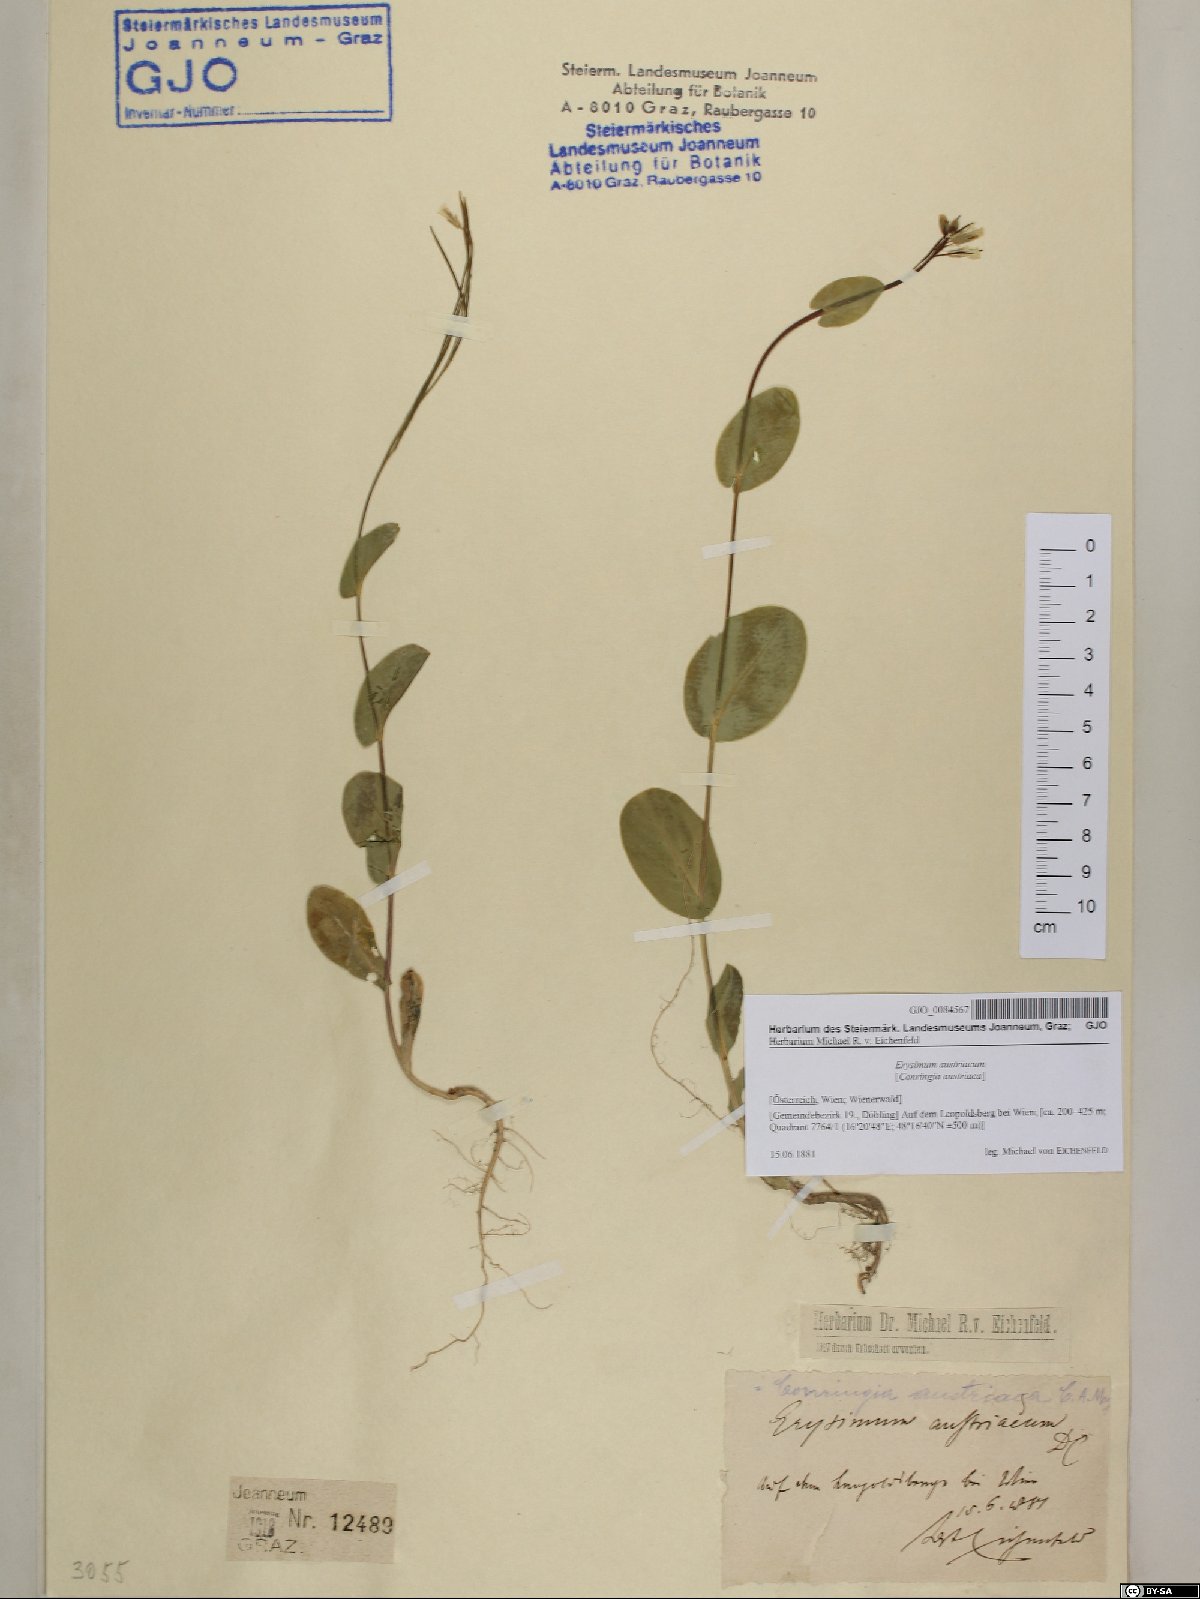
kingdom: Plantae
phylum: Tracheophyta
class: Magnoliopsida
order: Brassicales
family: Brassicaceae
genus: Conringia
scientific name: Conringia austriaca
